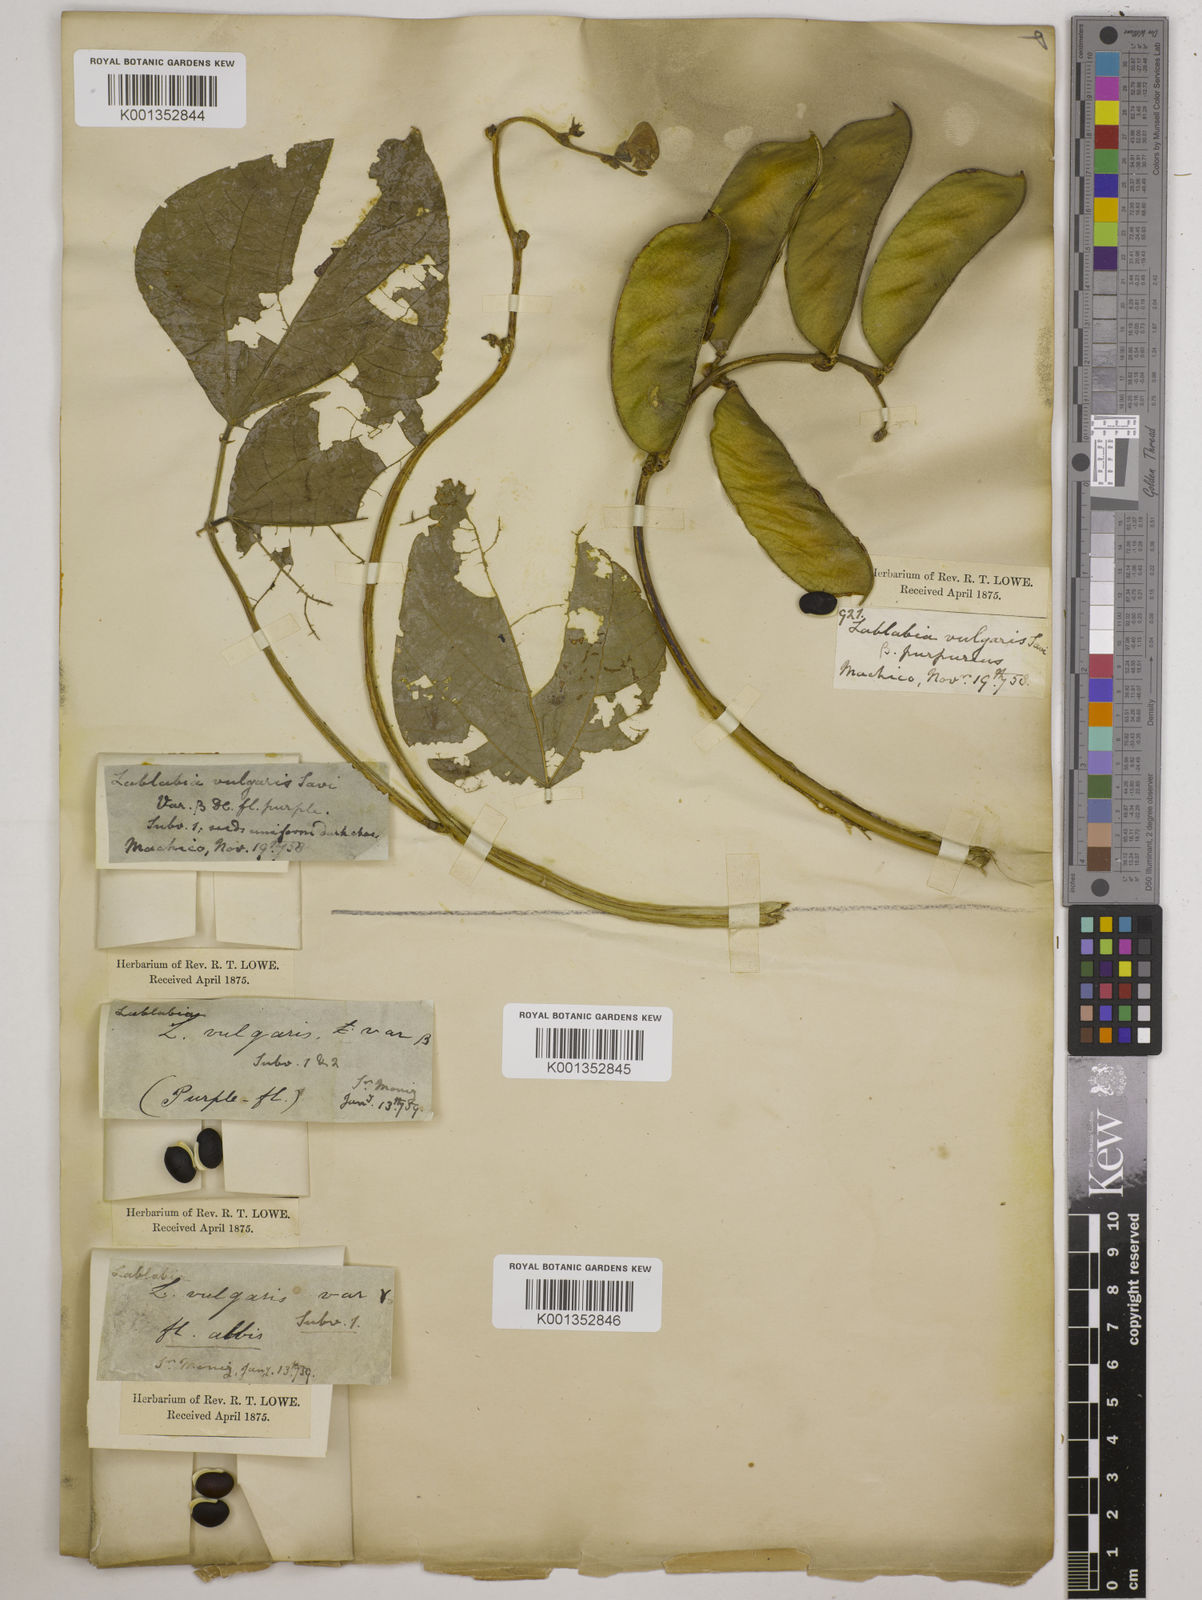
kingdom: Plantae
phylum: Tracheophyta
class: Magnoliopsida
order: Fabales
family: Fabaceae
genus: Lablab
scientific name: Lablab purpureus
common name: Lablab-bean
